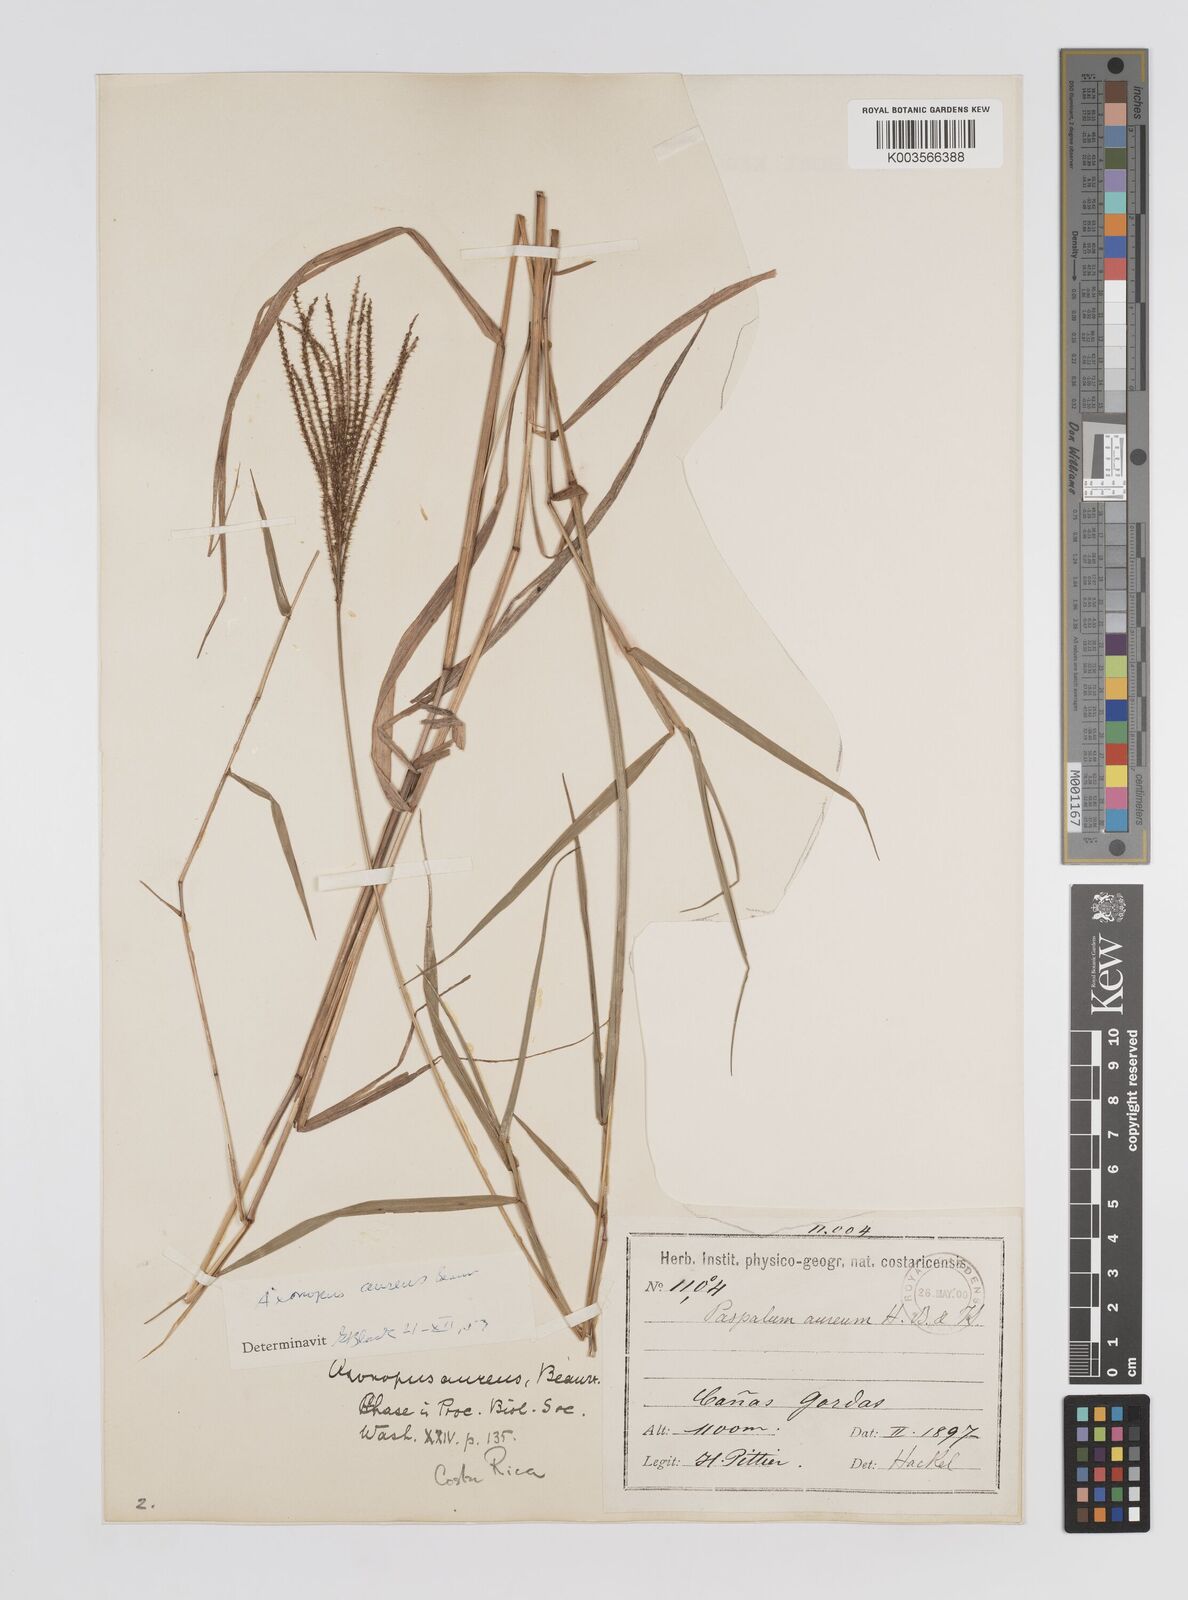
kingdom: Plantae
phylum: Tracheophyta
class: Liliopsida
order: Poales
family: Poaceae
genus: Axonopus
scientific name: Axonopus aureus
